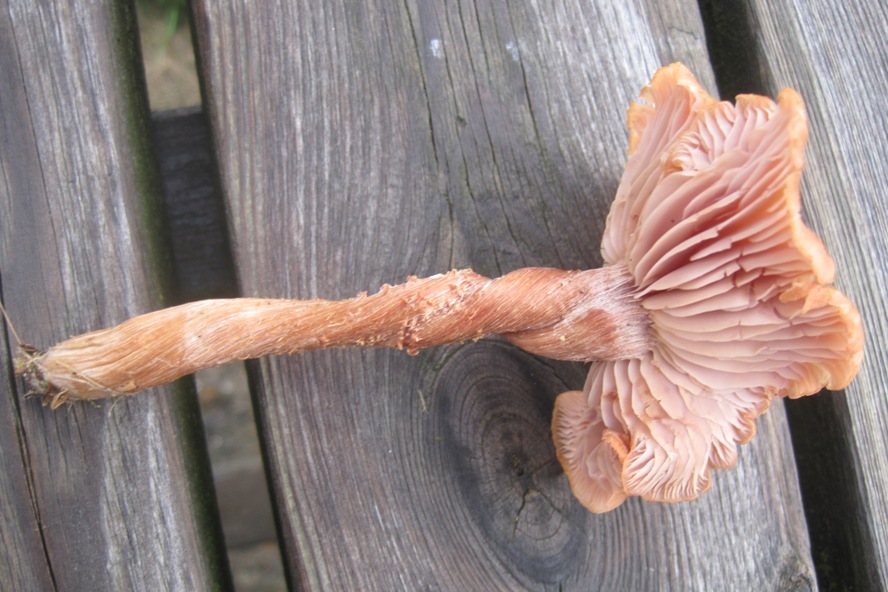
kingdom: Fungi
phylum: Basidiomycota
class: Agaricomycetes
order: Agaricales
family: Hydnangiaceae
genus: Laccaria
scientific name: Laccaria proxima
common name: stor ametysthat
